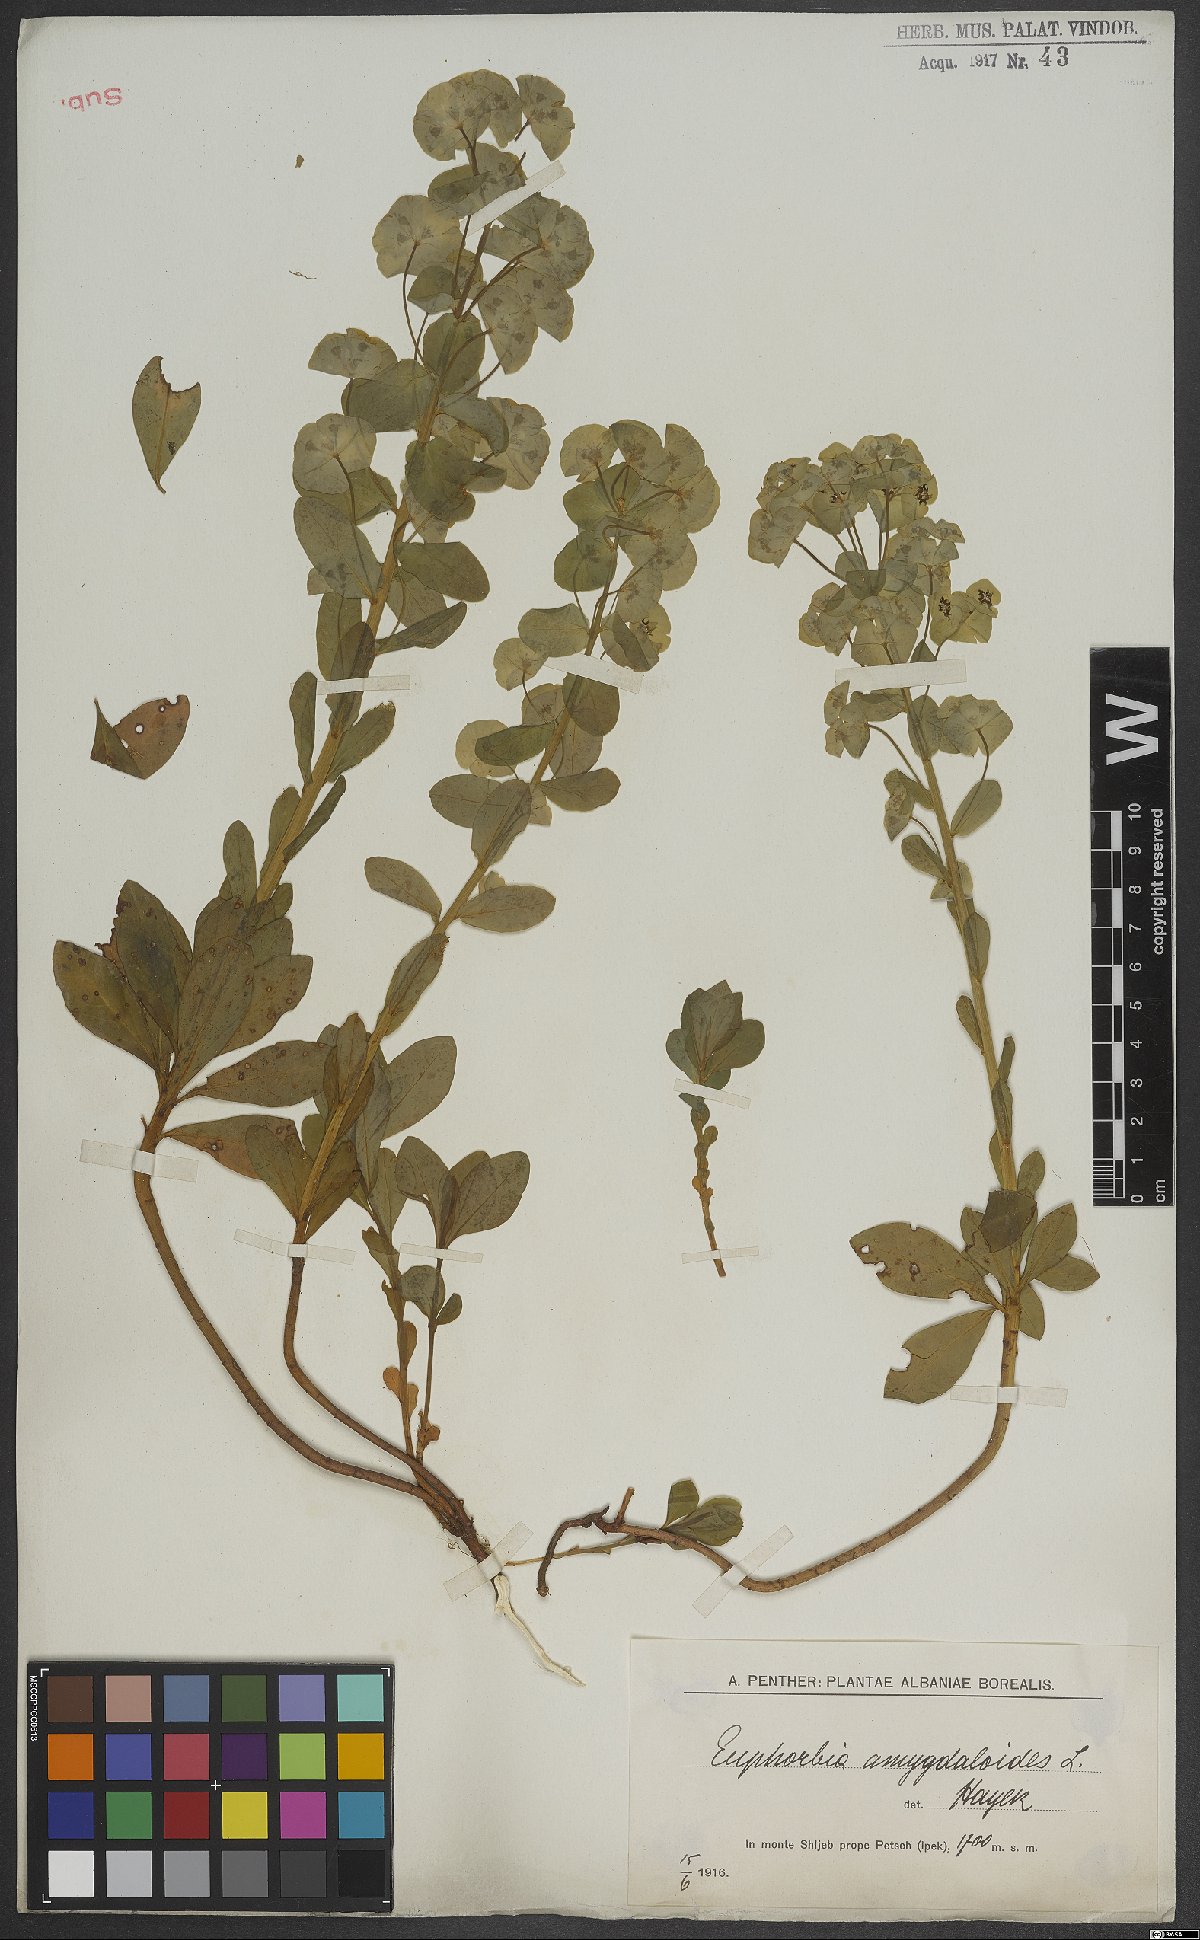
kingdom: Plantae
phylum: Tracheophyta
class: Magnoliopsida
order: Malpighiales
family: Euphorbiaceae
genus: Euphorbia
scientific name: Euphorbia amygdaloides
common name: Wood spurge
